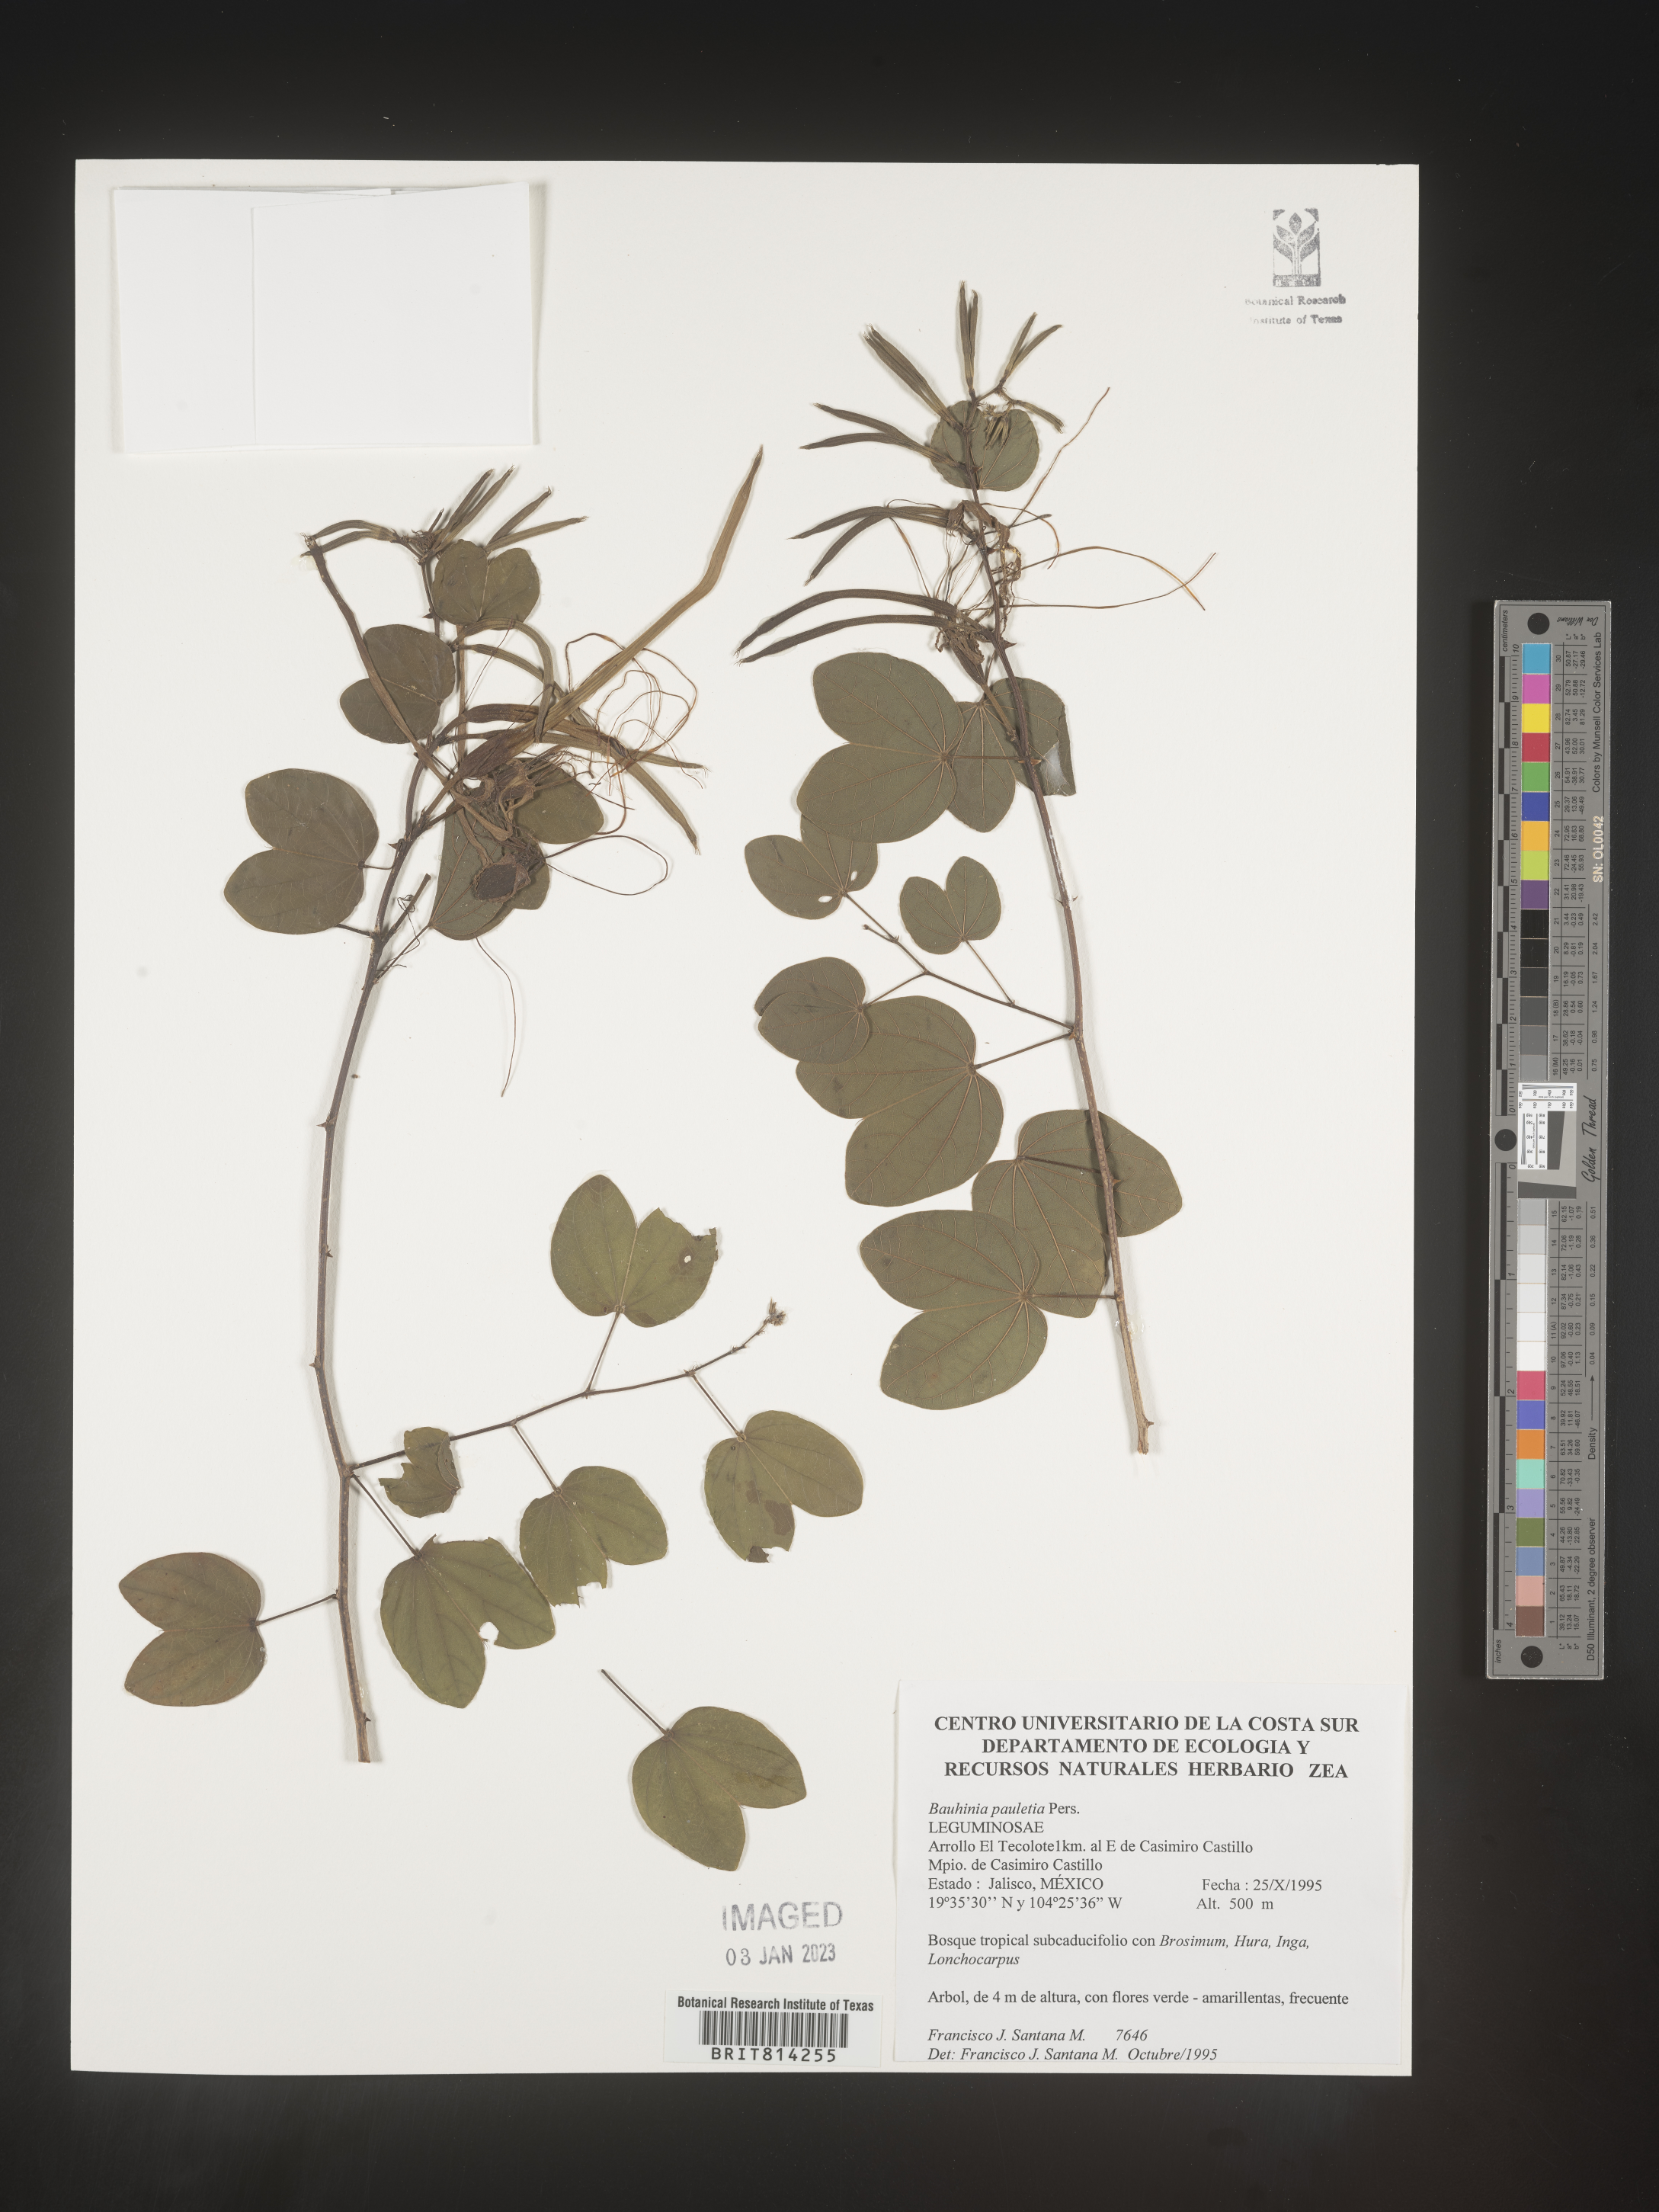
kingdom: Plantae
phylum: Tracheophyta
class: Magnoliopsida
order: Fabales
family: Fabaceae
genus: Bauhinia
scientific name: Bauhinia
